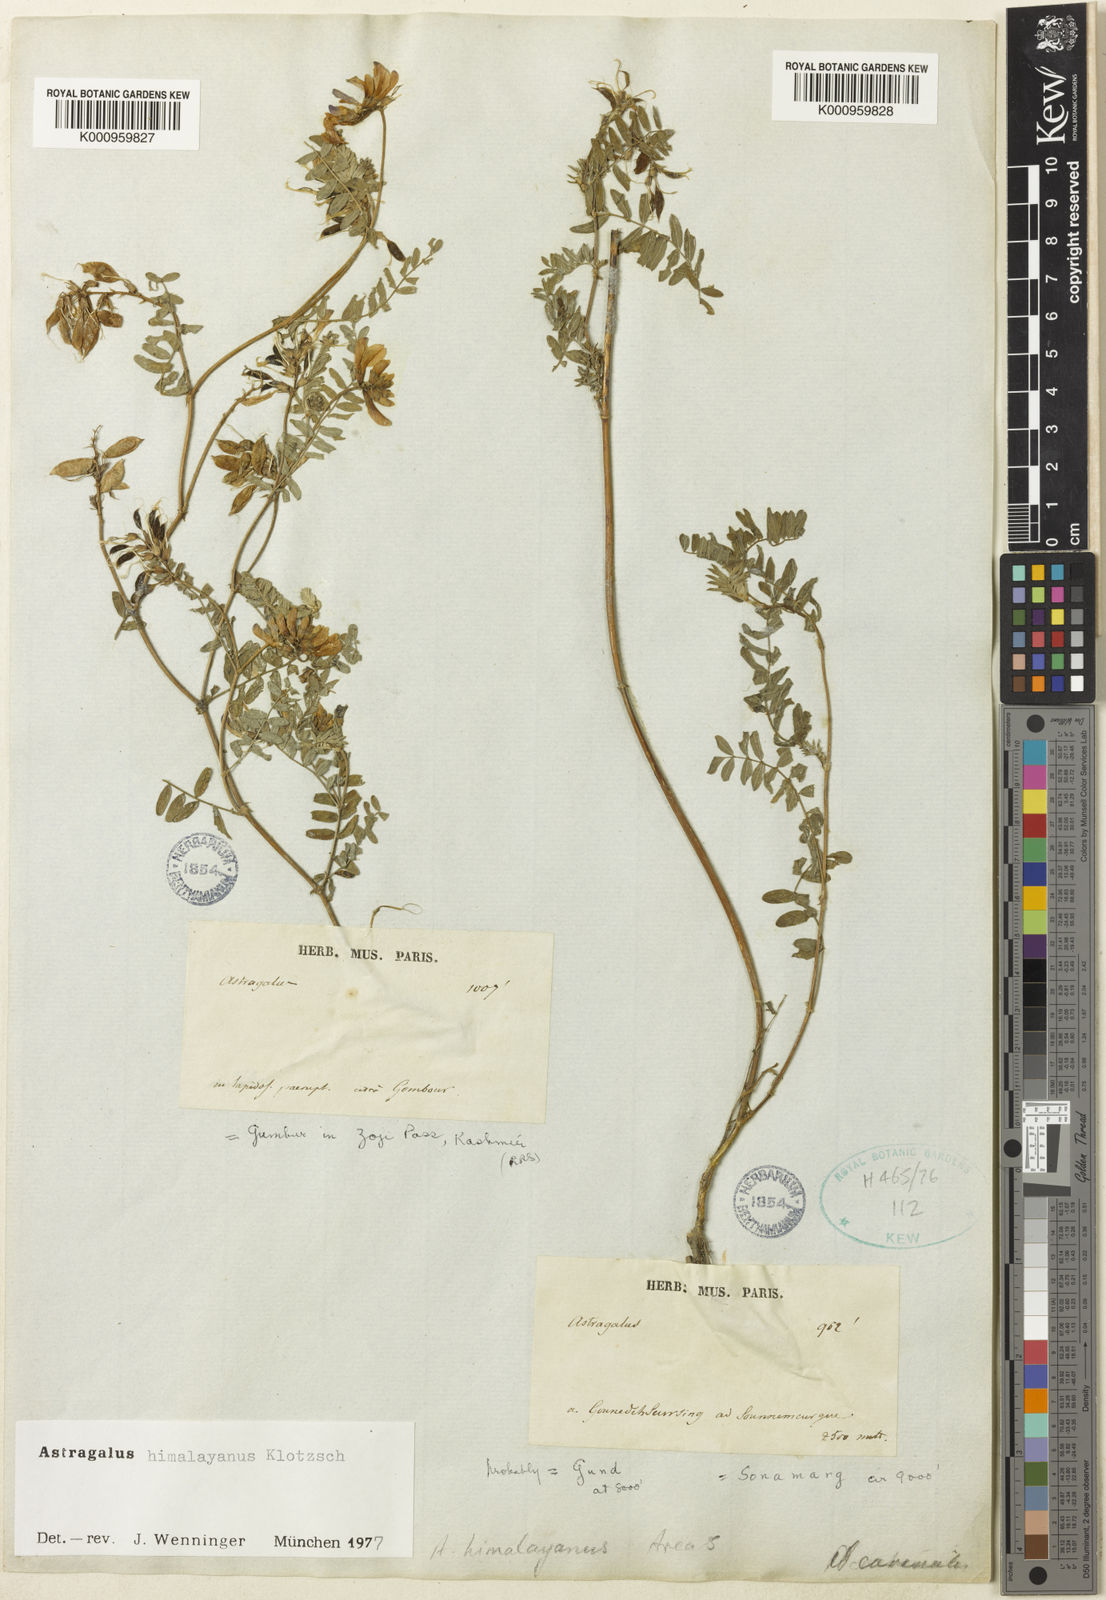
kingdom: Plantae
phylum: Tracheophyta
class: Magnoliopsida
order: Fabales
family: Fabaceae
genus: Astragalus
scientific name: Astragalus
